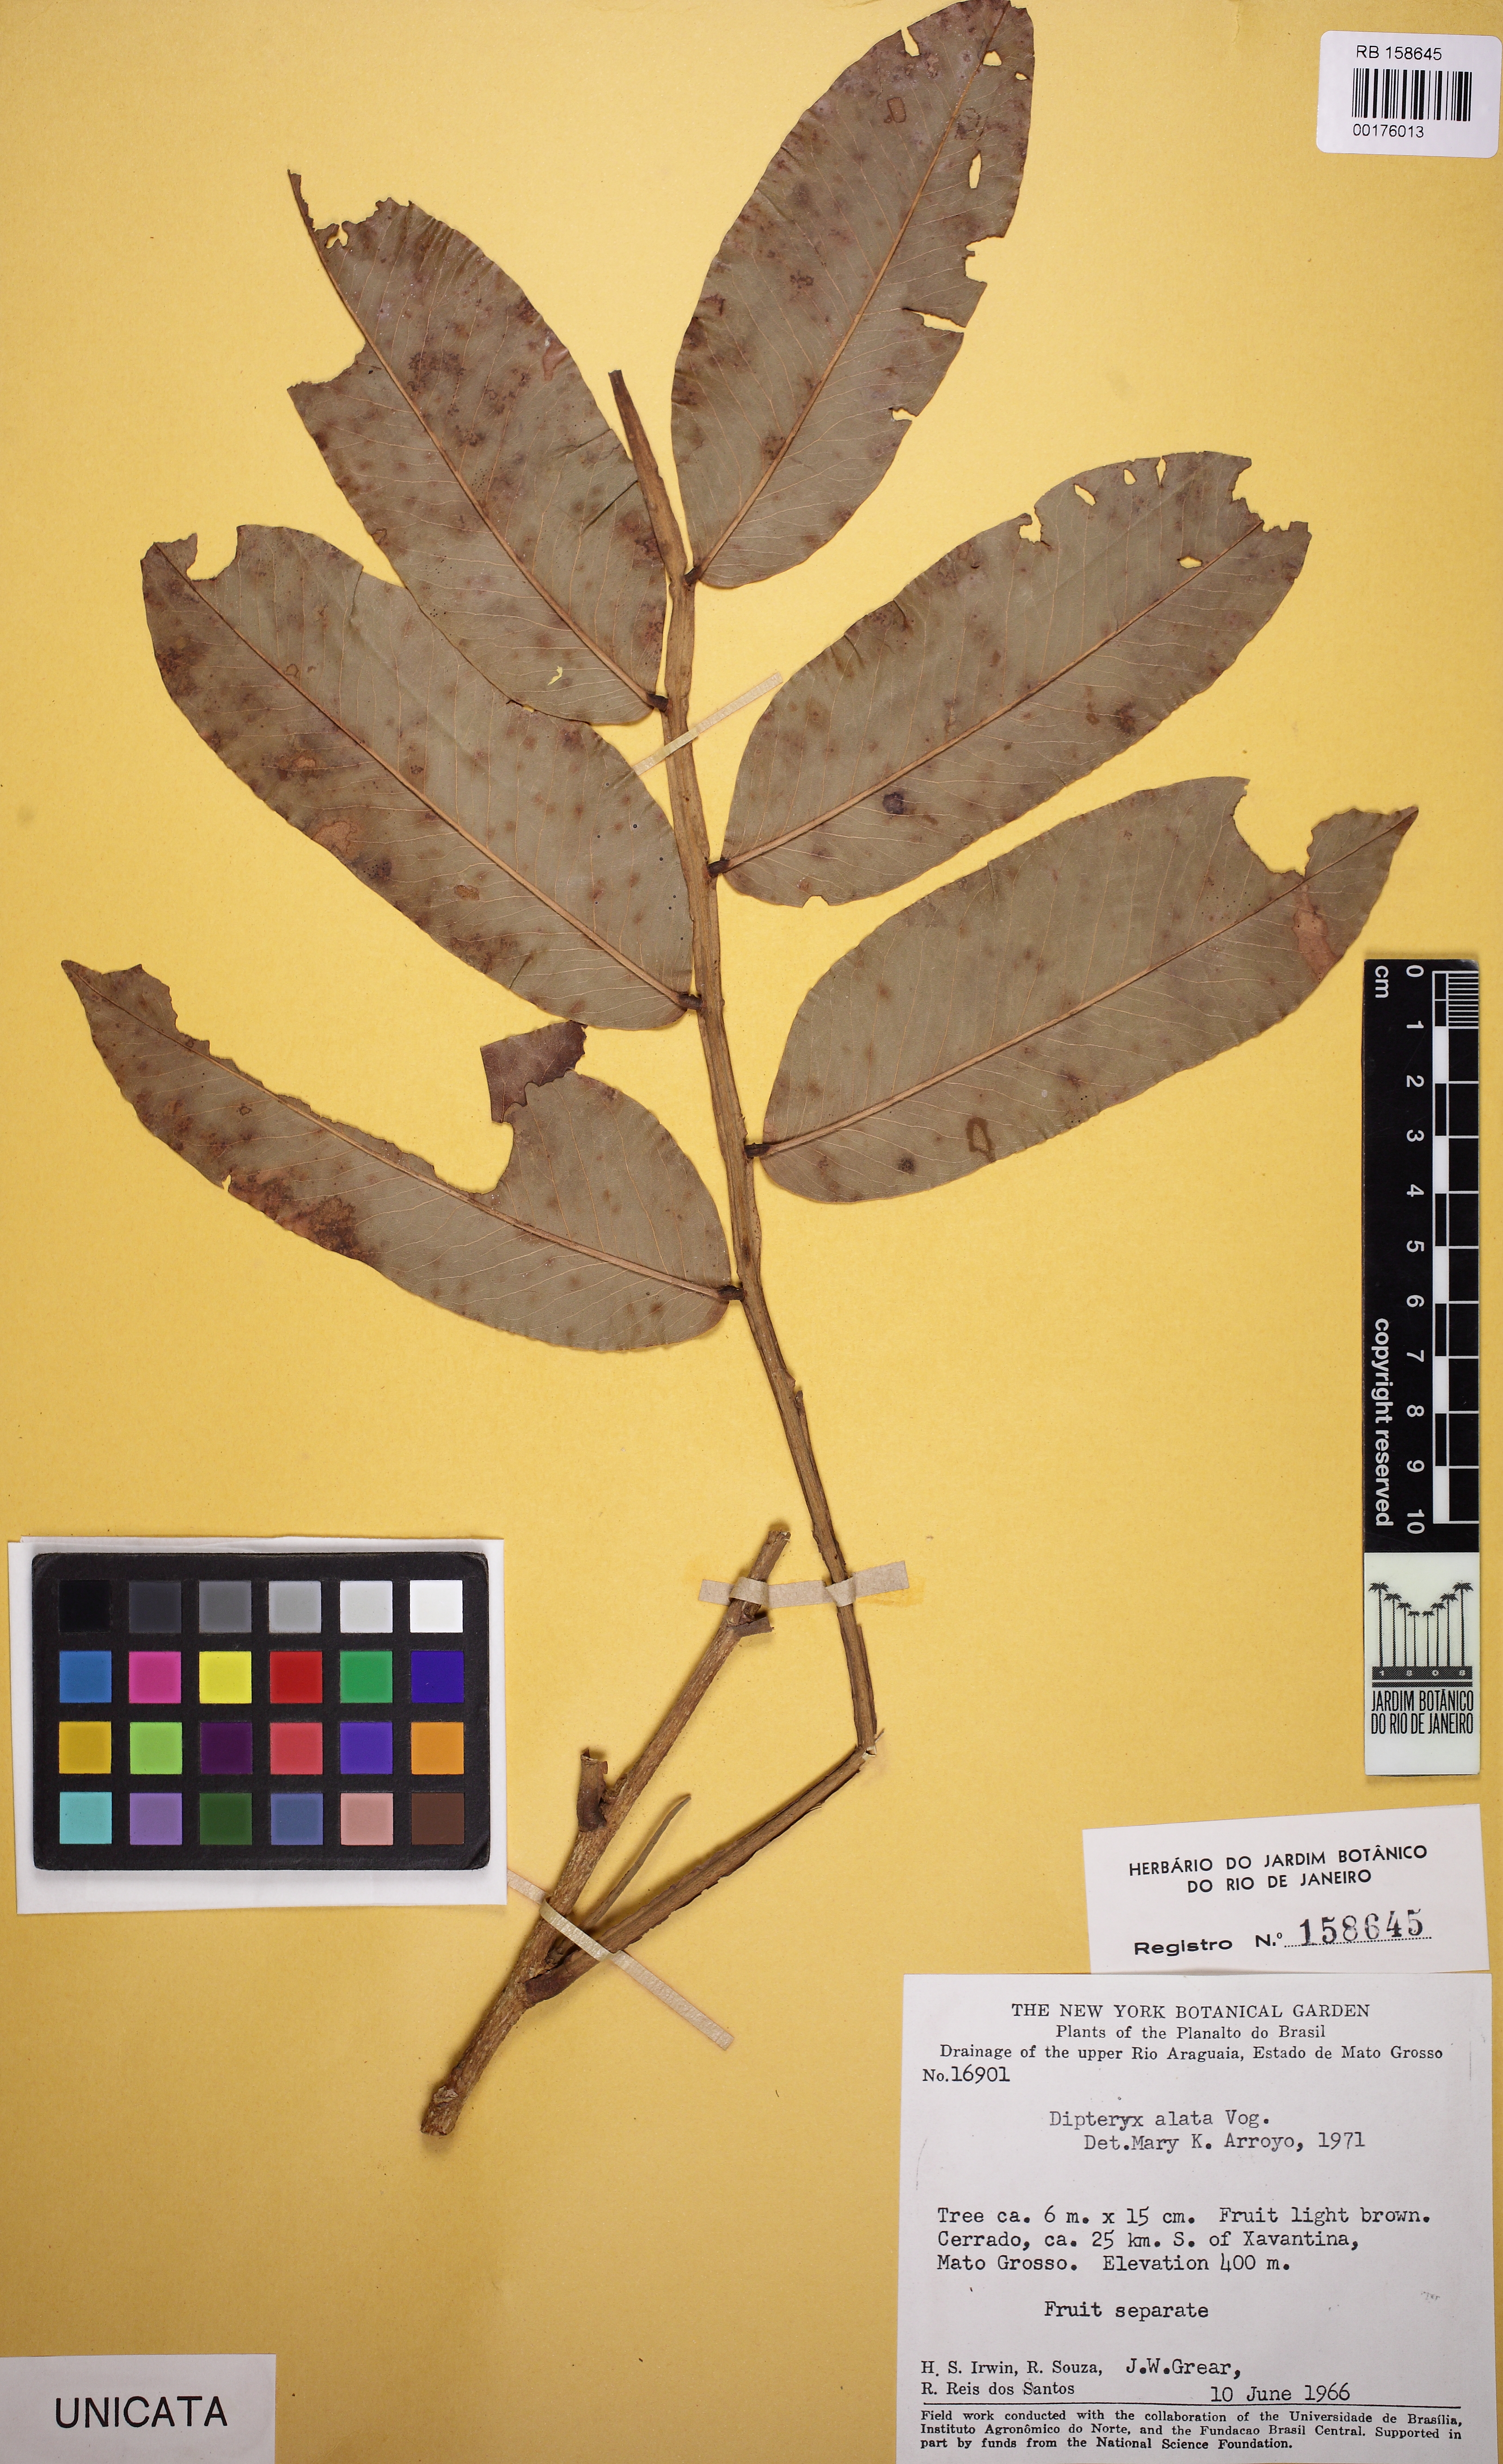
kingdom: Plantae
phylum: Tracheophyta
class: Magnoliopsida
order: Fabales
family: Fabaceae
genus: Dipteryx
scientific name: Dipteryx alata
